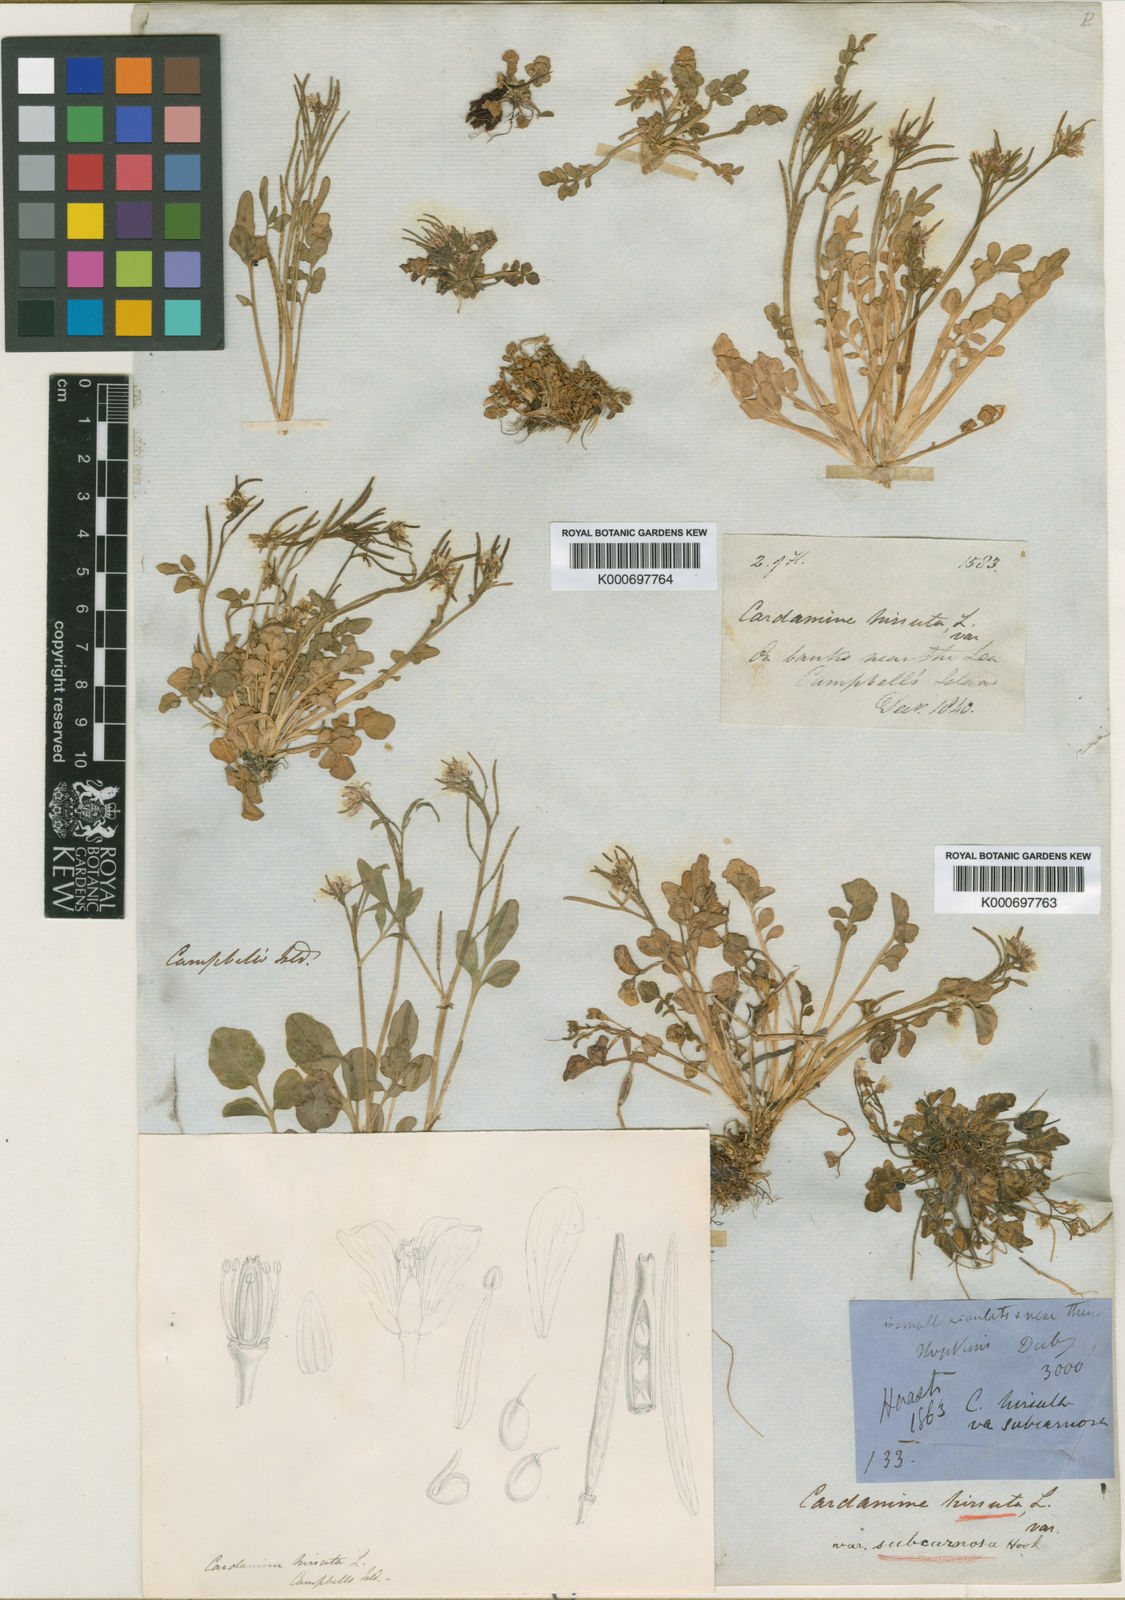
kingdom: Plantae
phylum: Tracheophyta
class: Magnoliopsida
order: Brassicales
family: Brassicaceae
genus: Cardamine
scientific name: Cardamine subcarnosa
